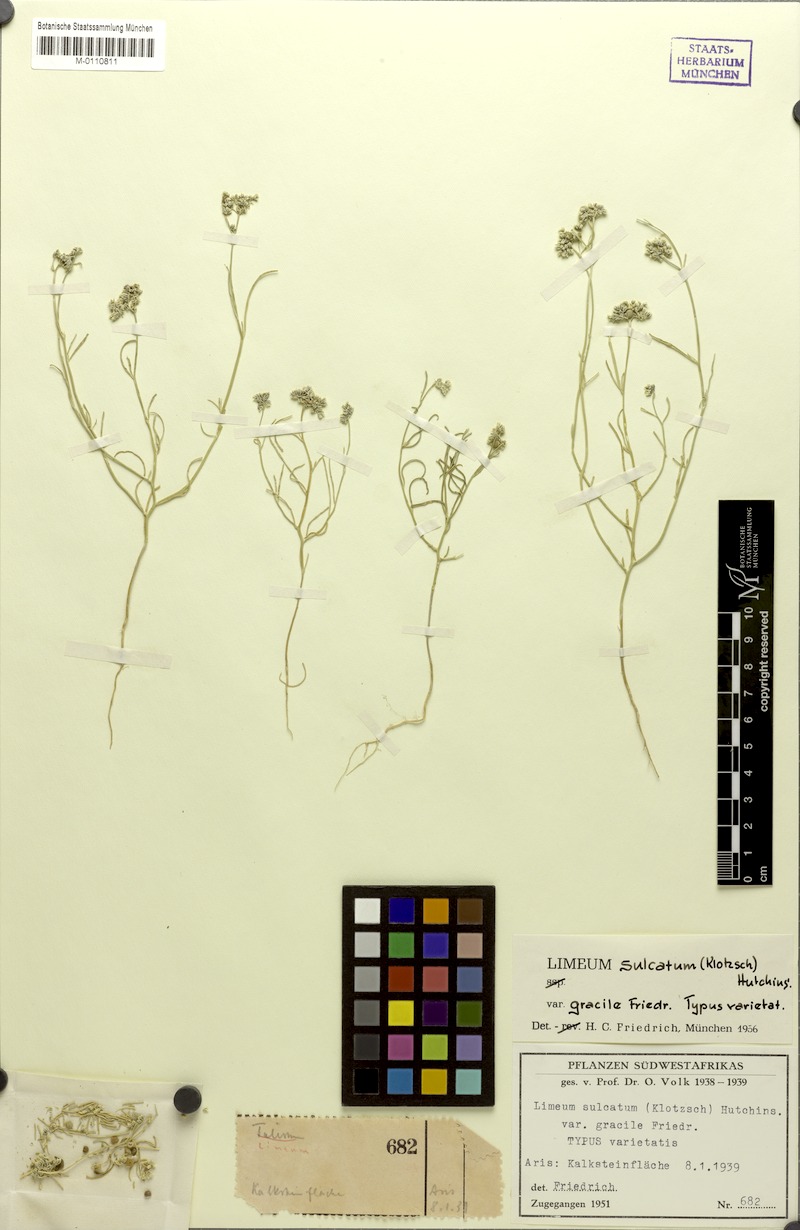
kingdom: Plantae
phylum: Tracheophyta
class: Magnoliopsida
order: Caryophyllales
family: Limeaceae
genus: Limeum
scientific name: Limeum sulcatum
